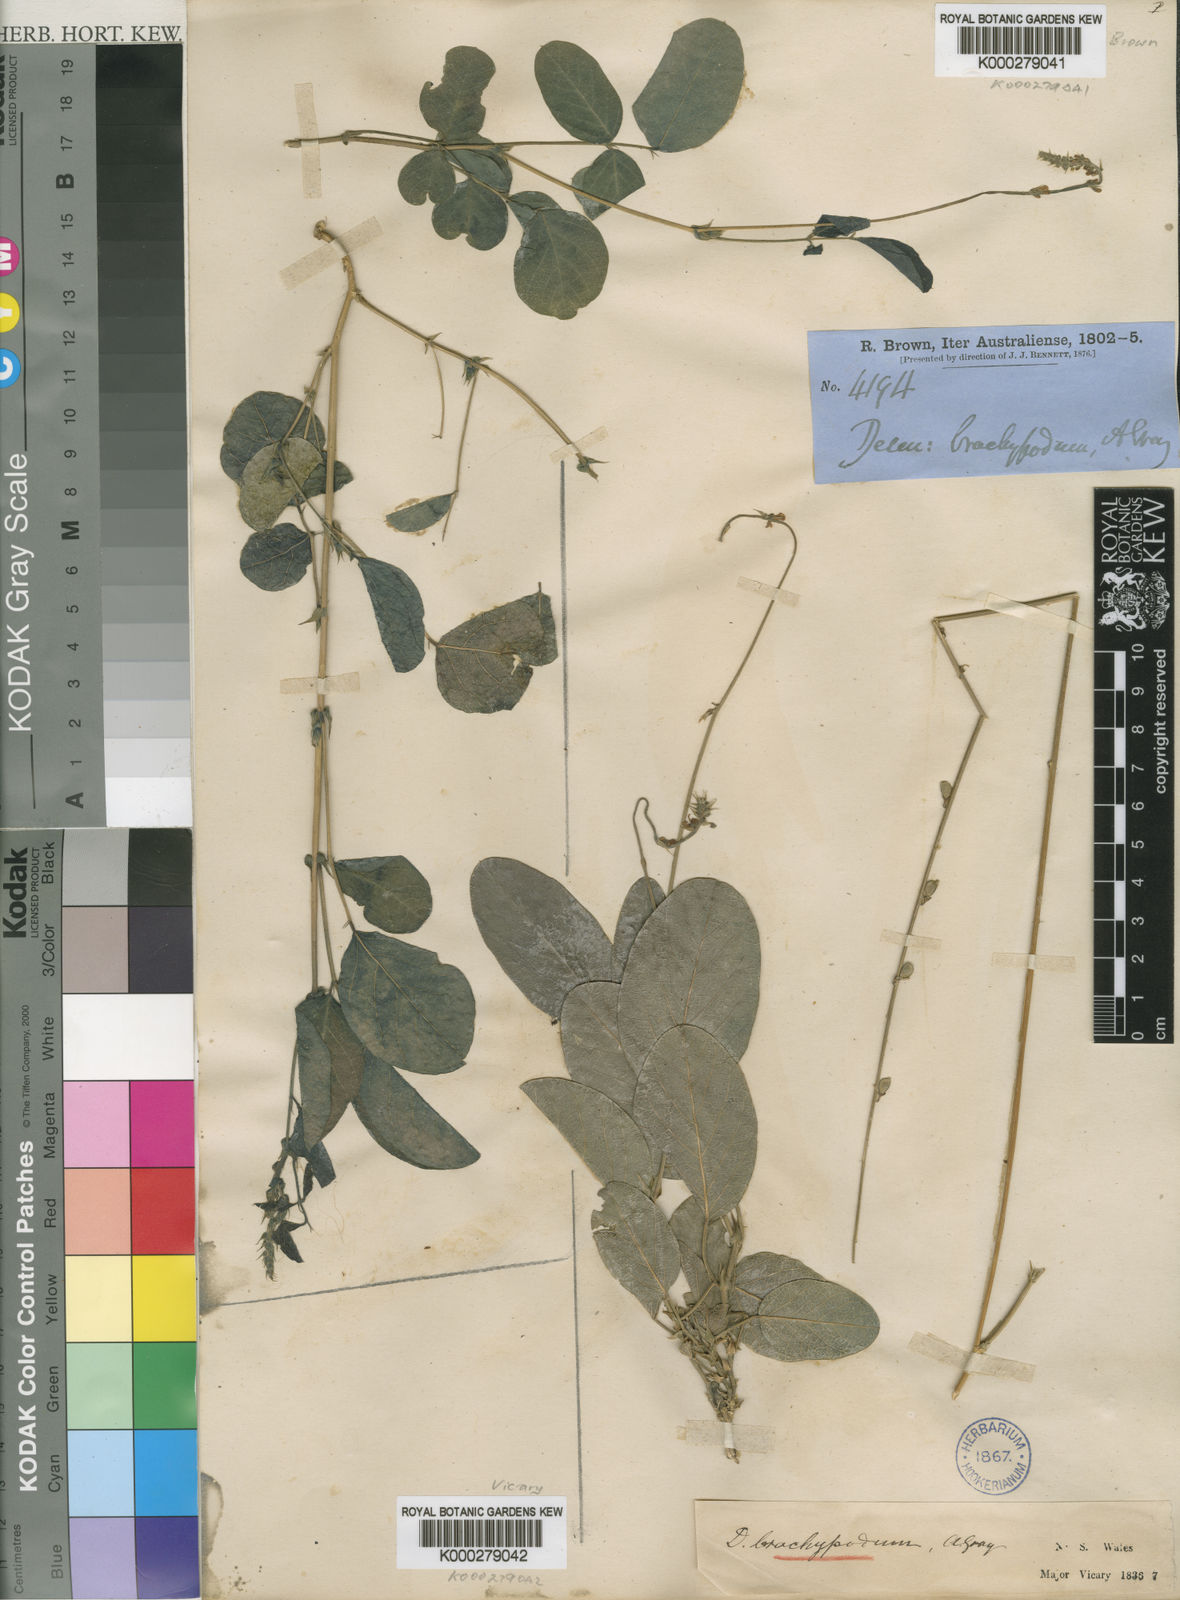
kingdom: Plantae
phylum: Tracheophyta
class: Magnoliopsida
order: Fabales
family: Fabaceae
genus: Oxytes
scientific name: Oxytes brachypoda
